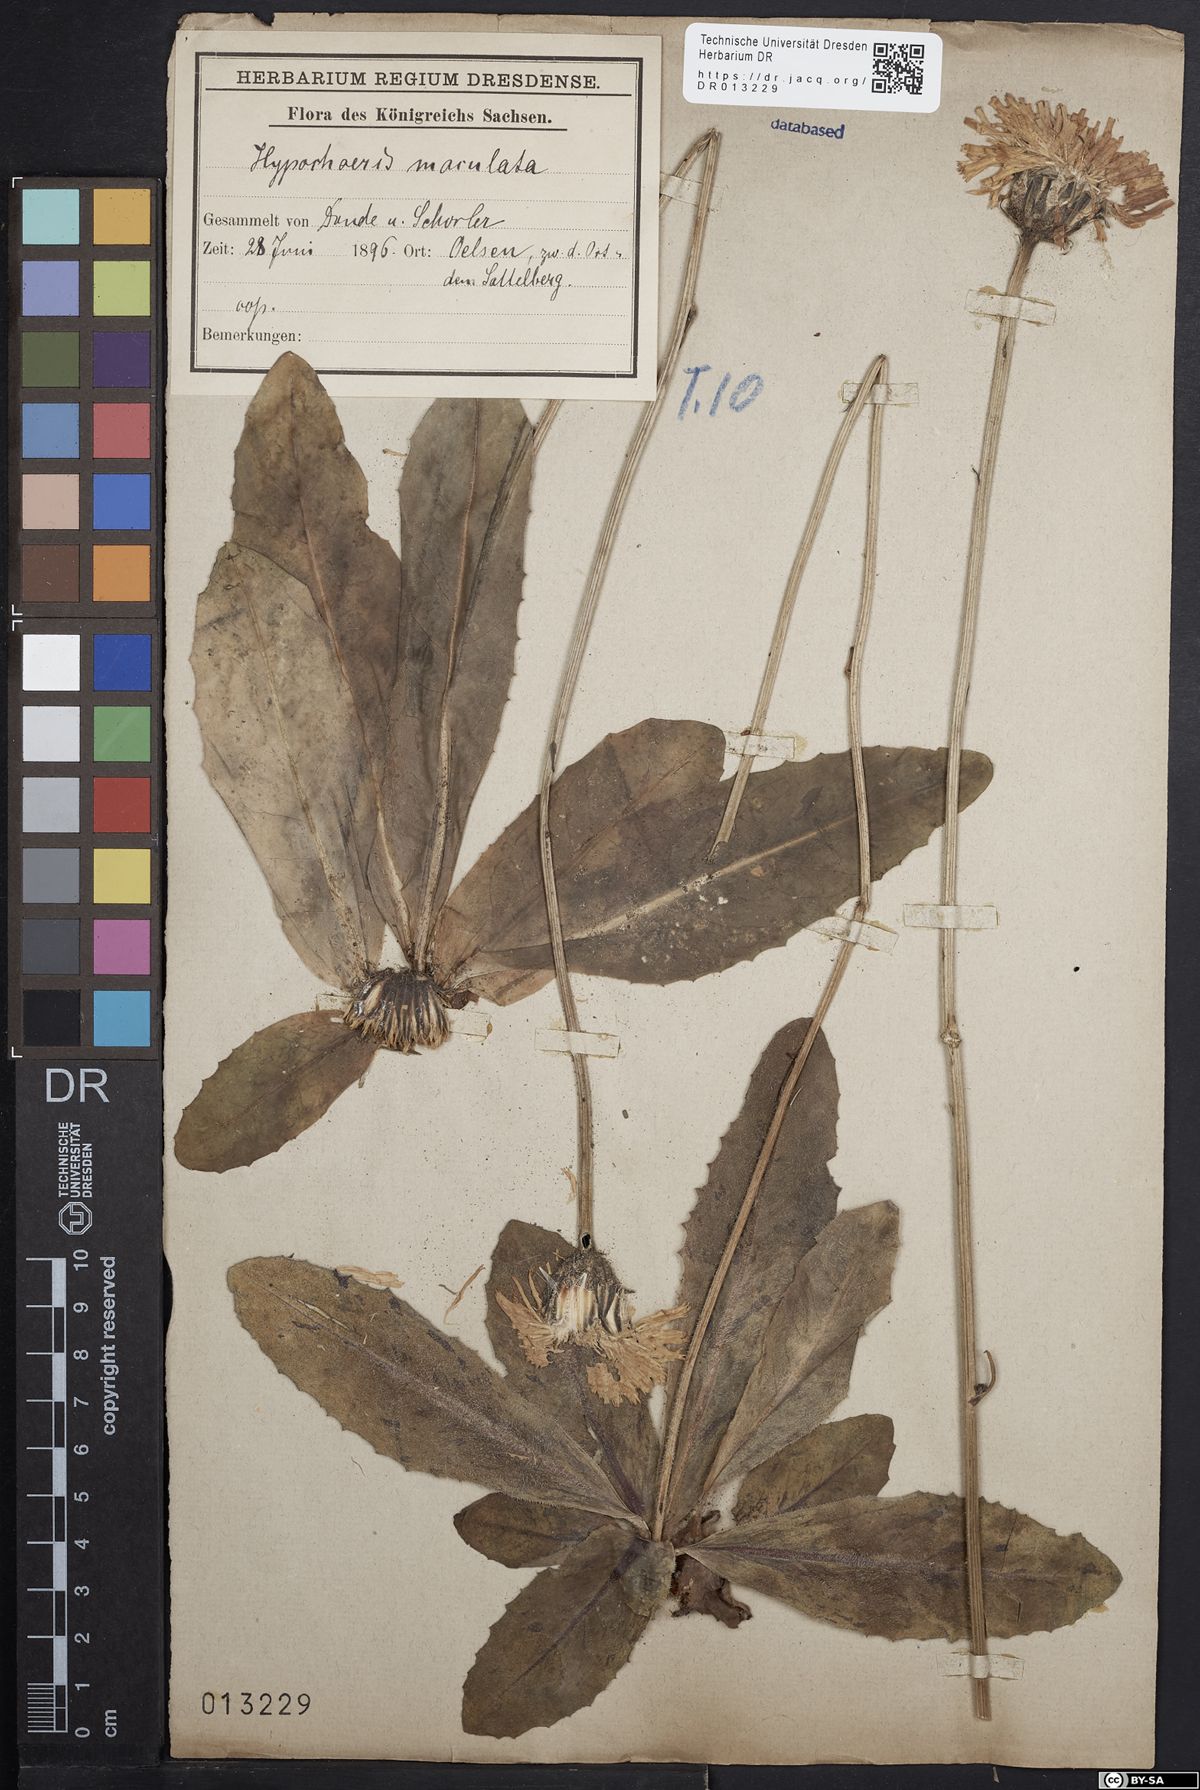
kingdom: Plantae
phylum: Tracheophyta
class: Magnoliopsida
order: Asterales
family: Asteraceae
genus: Trommsdorffia
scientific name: Trommsdorffia maculata
